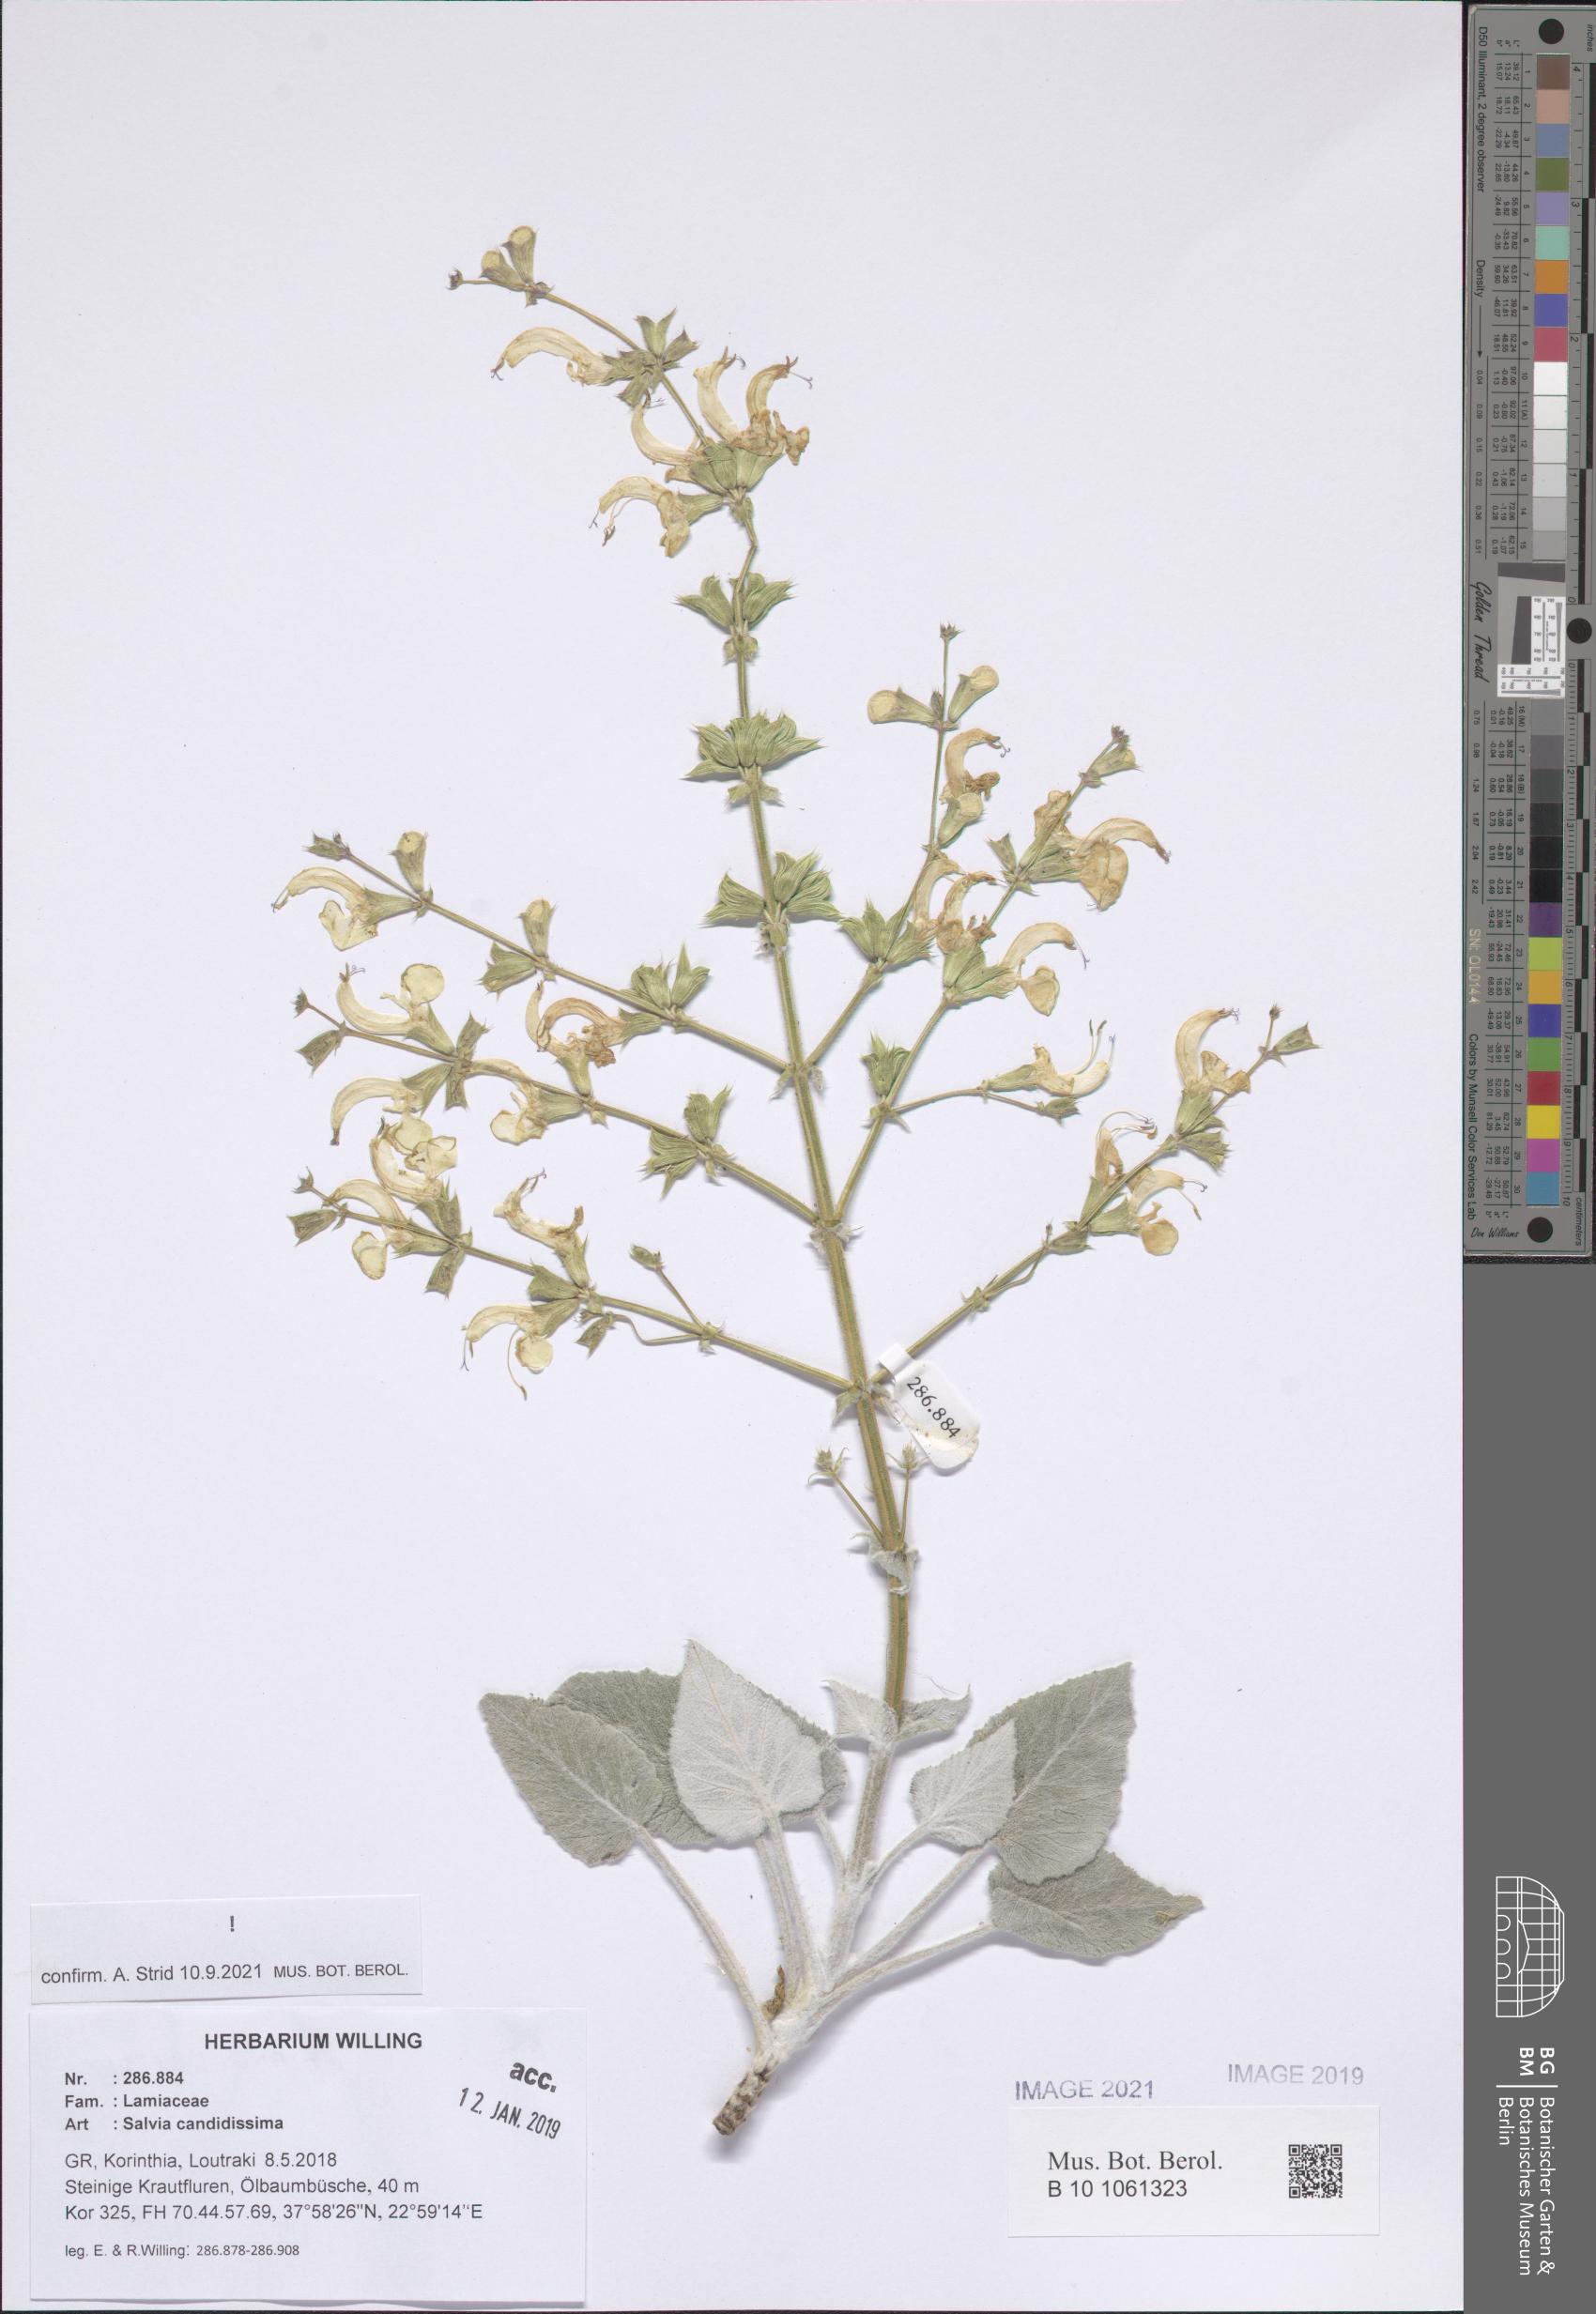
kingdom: Plantae
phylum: Tracheophyta
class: Magnoliopsida
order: Lamiales
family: Lamiaceae
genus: Salvia
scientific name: Salvia candidissima
